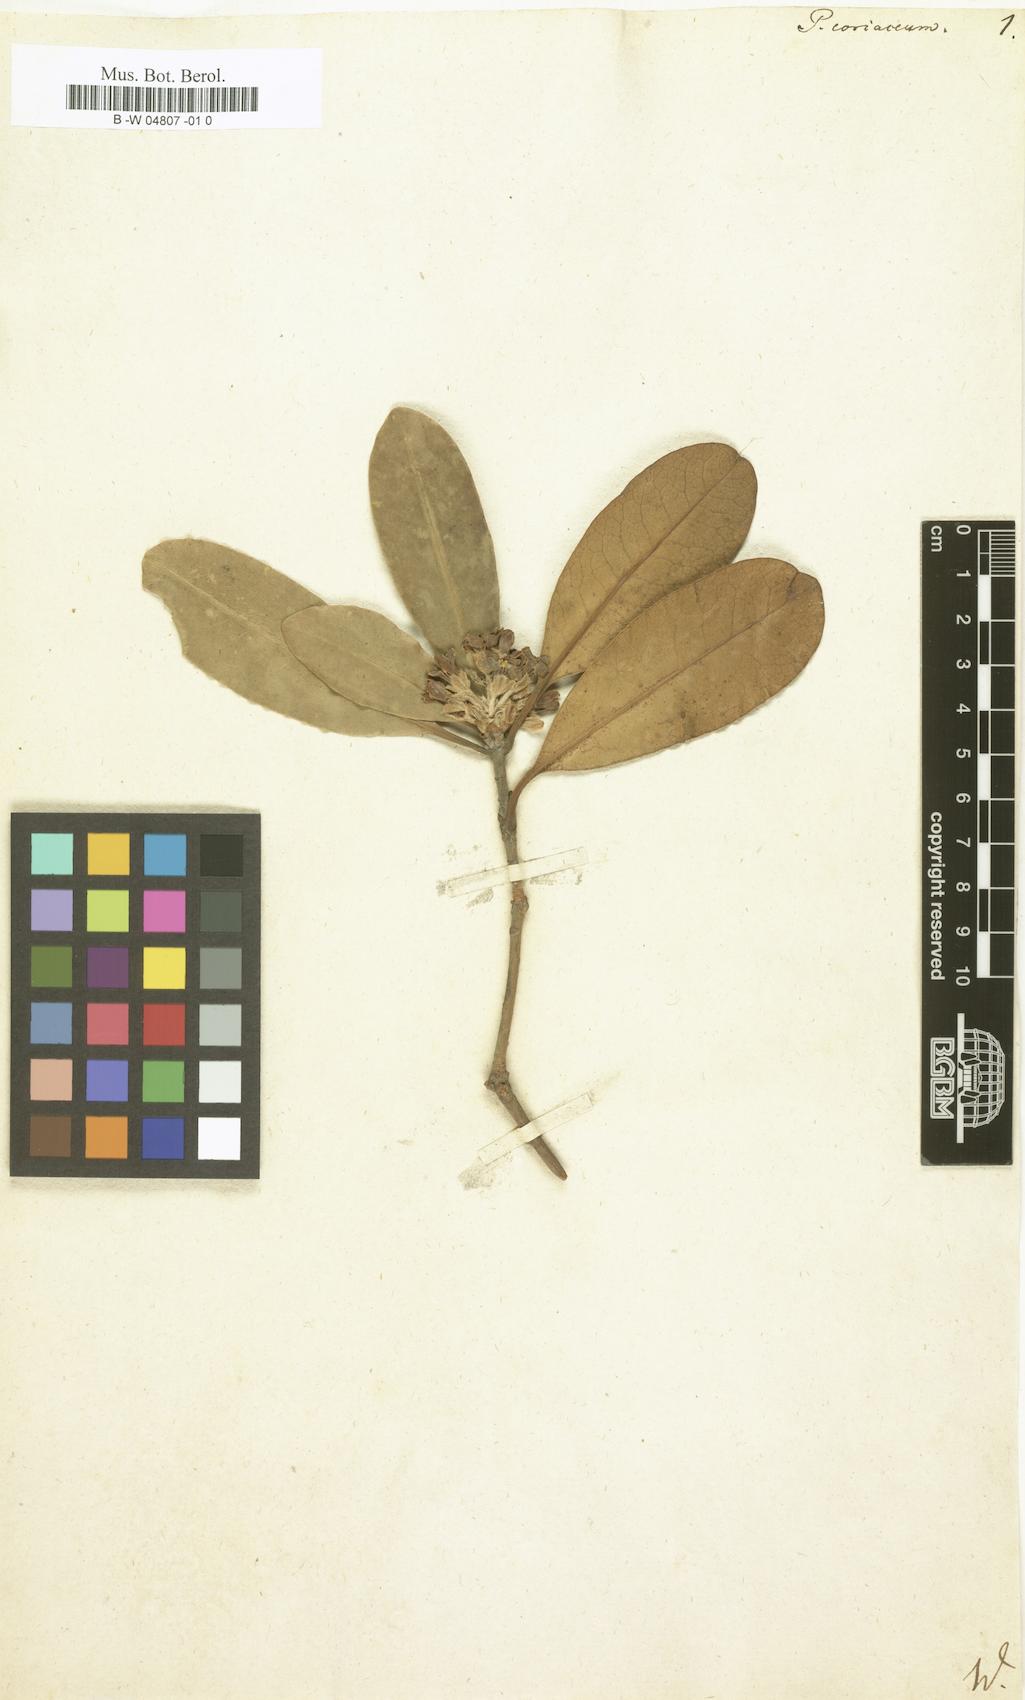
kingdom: Plantae
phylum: Tracheophyta
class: Magnoliopsida
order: Apiales
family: Pittosporaceae
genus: Pittosporum
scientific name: Pittosporum coriaceum
